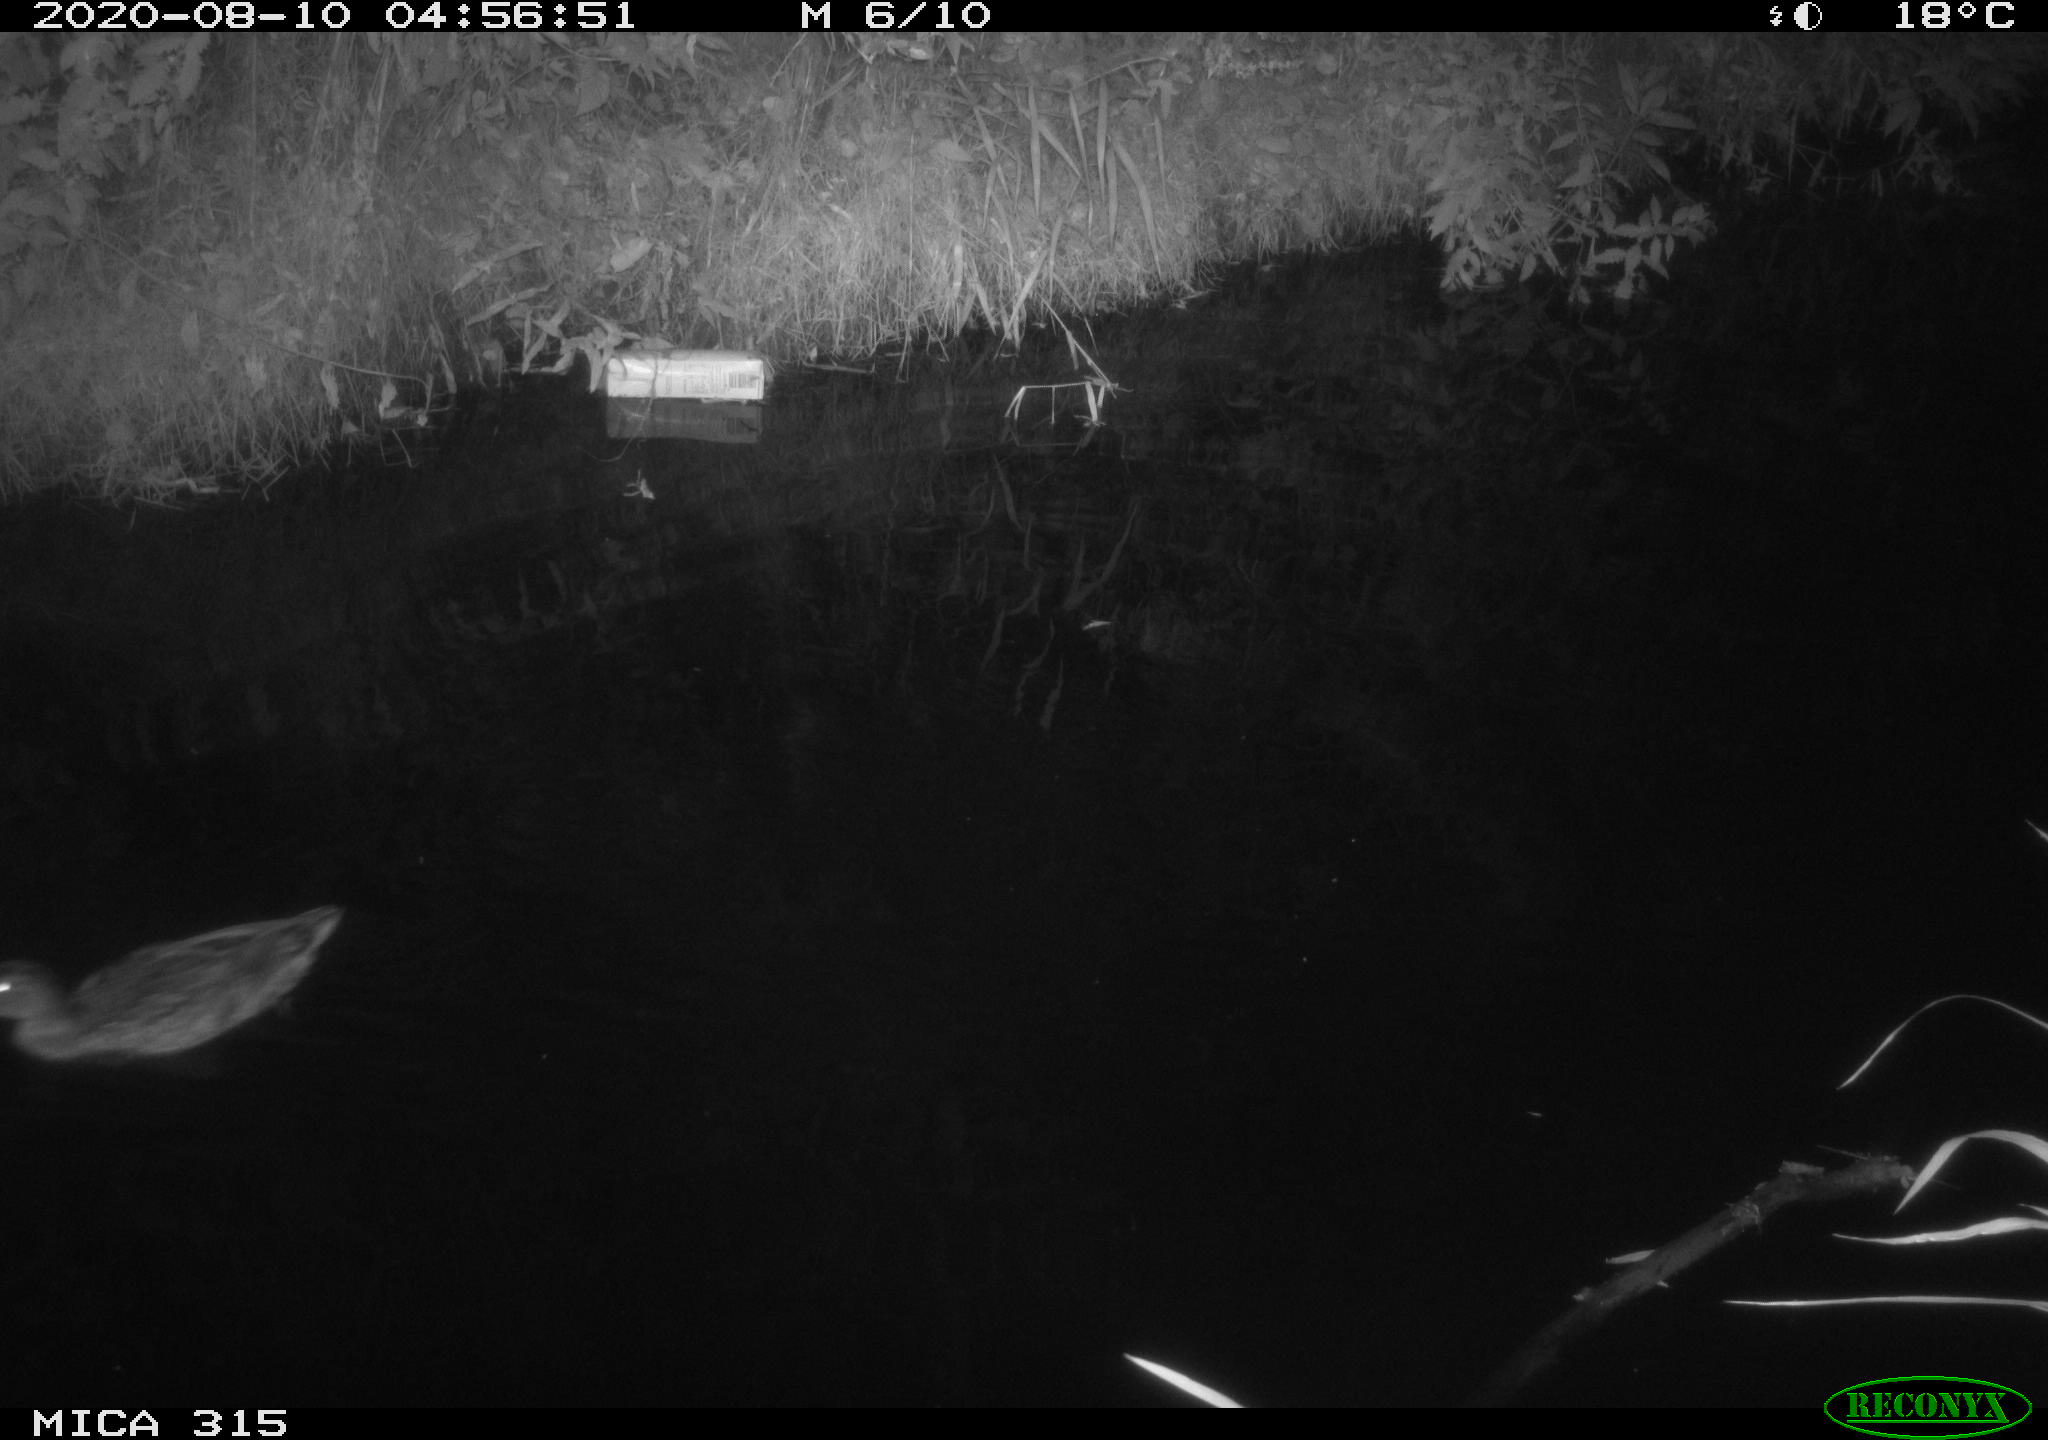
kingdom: Animalia
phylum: Chordata
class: Aves
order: Anseriformes
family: Anatidae
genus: Anas
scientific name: Anas platyrhynchos
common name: Mallard
